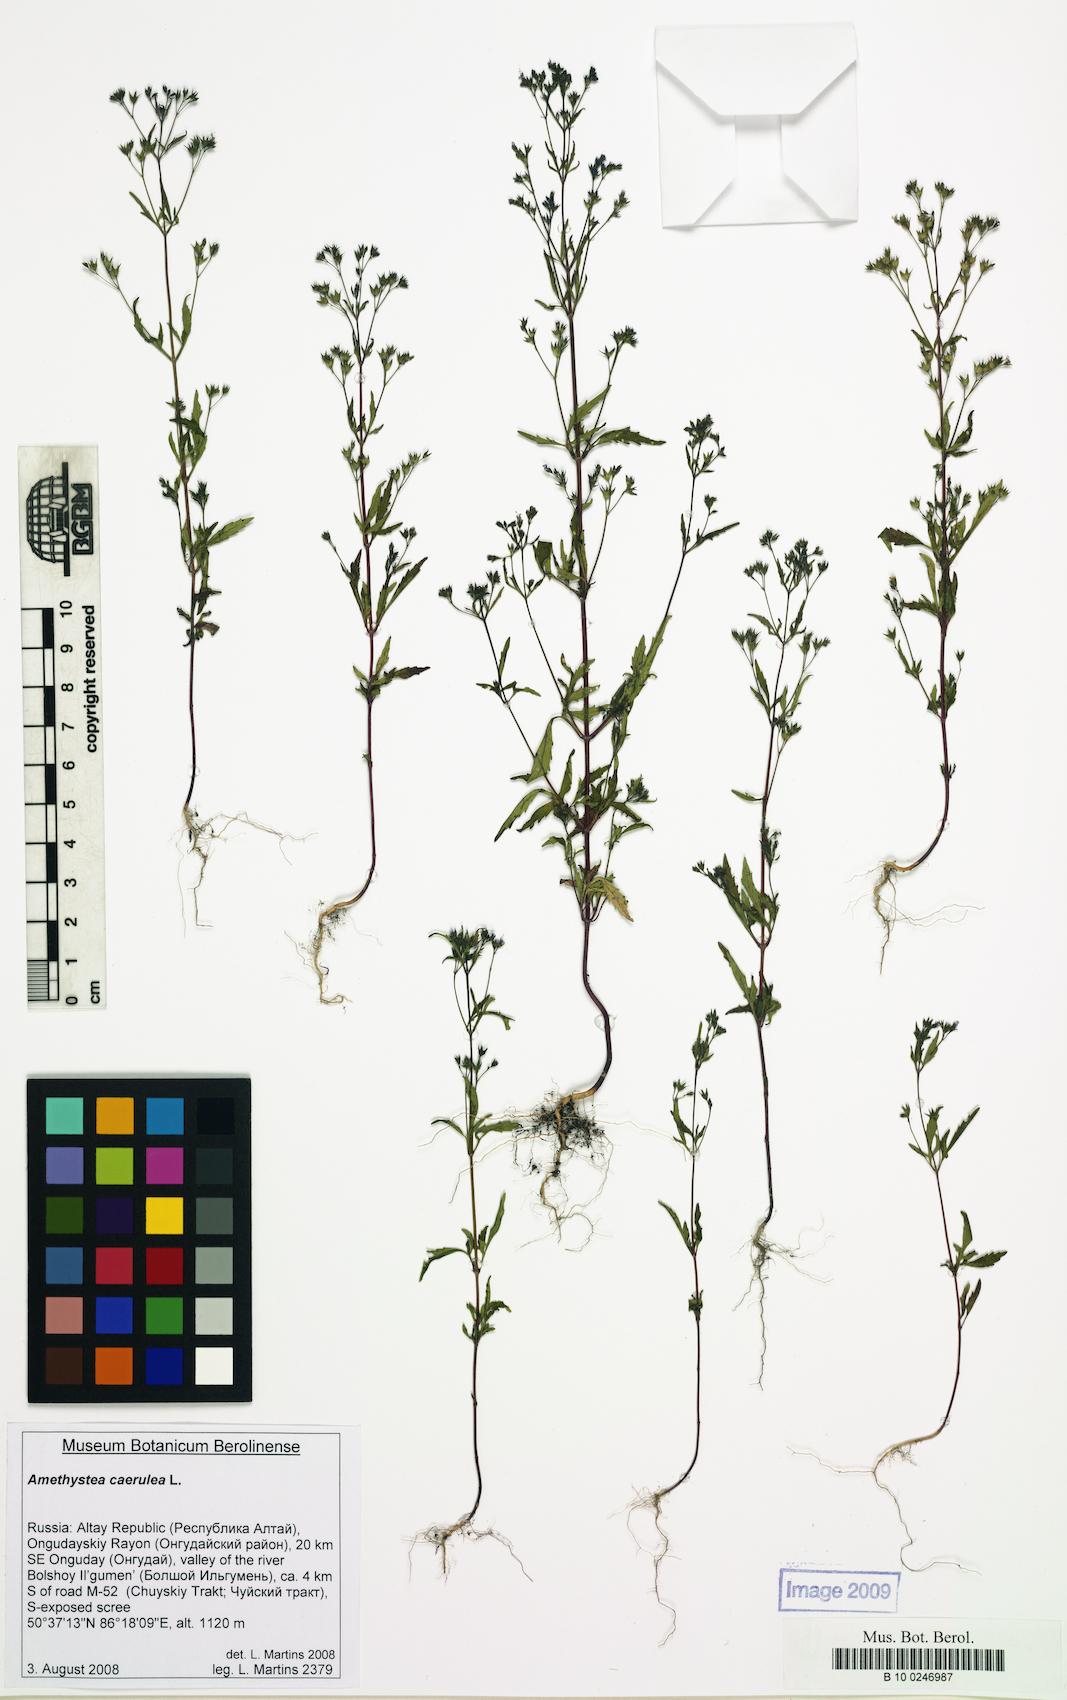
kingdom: Plantae
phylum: Tracheophyta
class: Magnoliopsida
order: Lamiales
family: Lamiaceae
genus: Amethystea
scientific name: Amethystea caerulea
